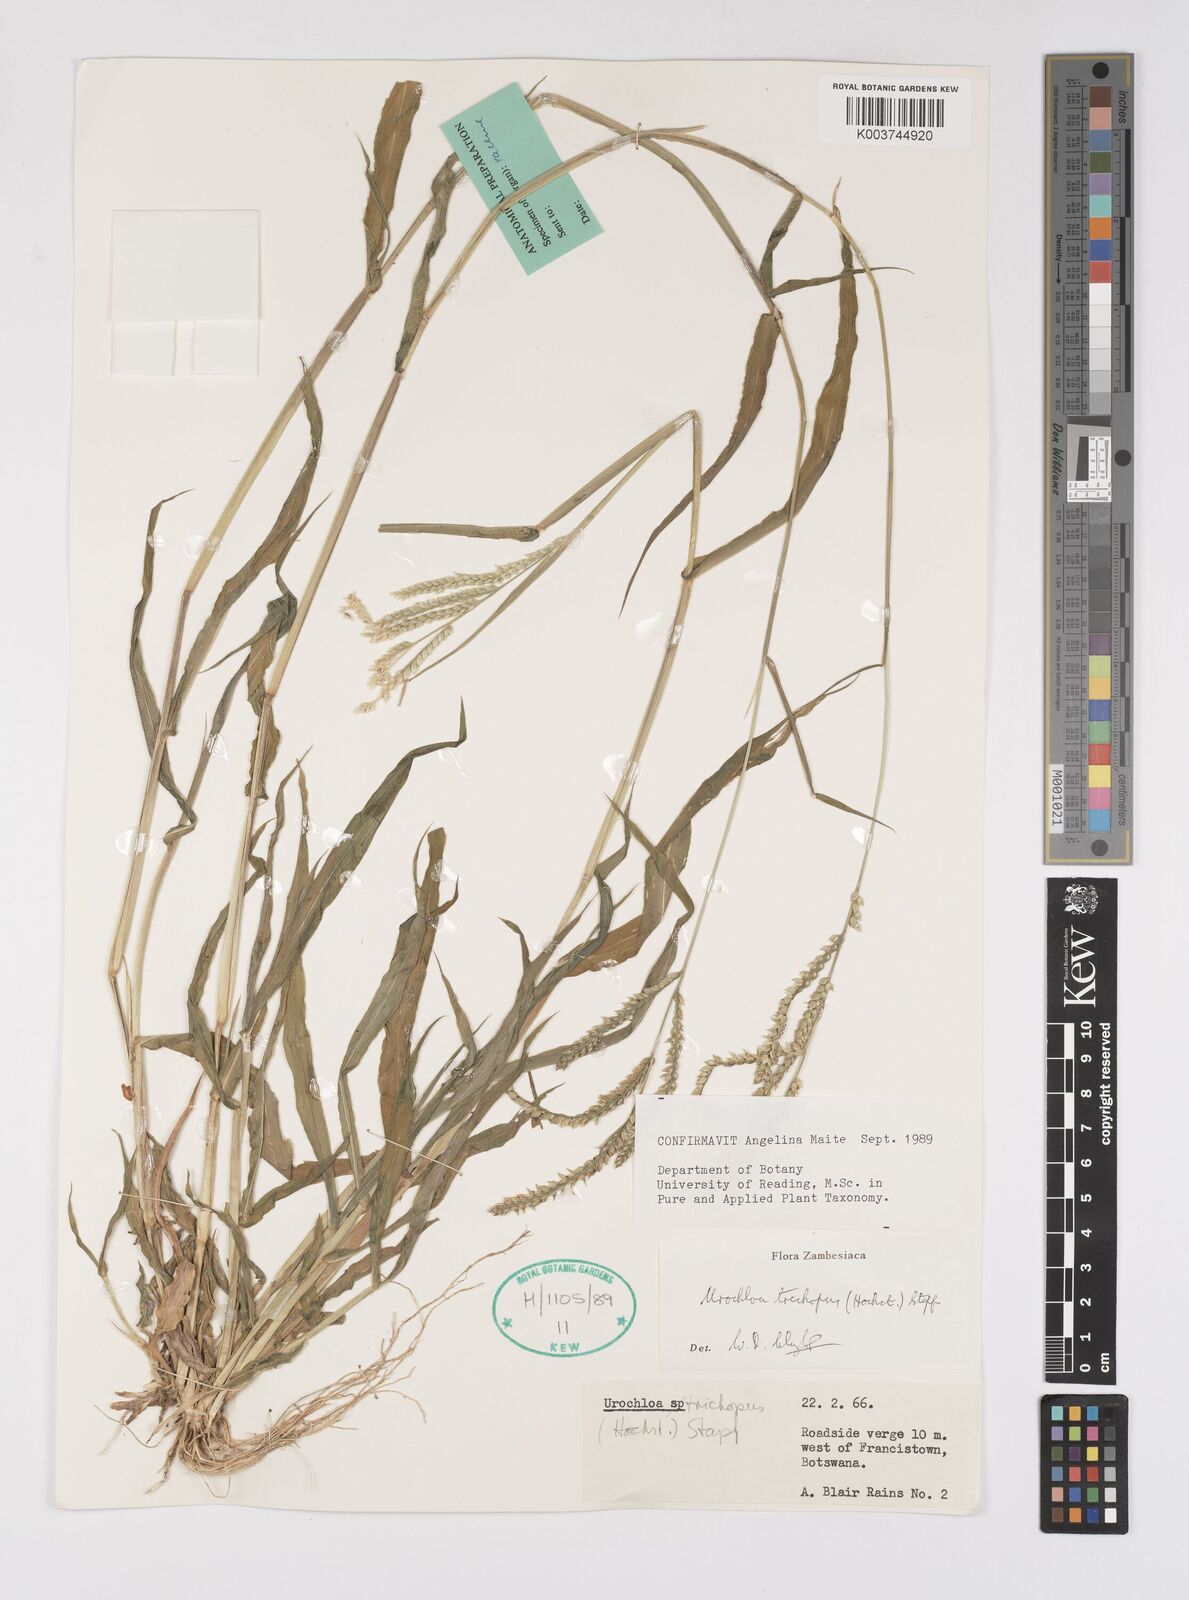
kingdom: Plantae
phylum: Tracheophyta
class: Liliopsida
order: Poales
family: Poaceae
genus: Urochloa
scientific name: Urochloa trichopus
